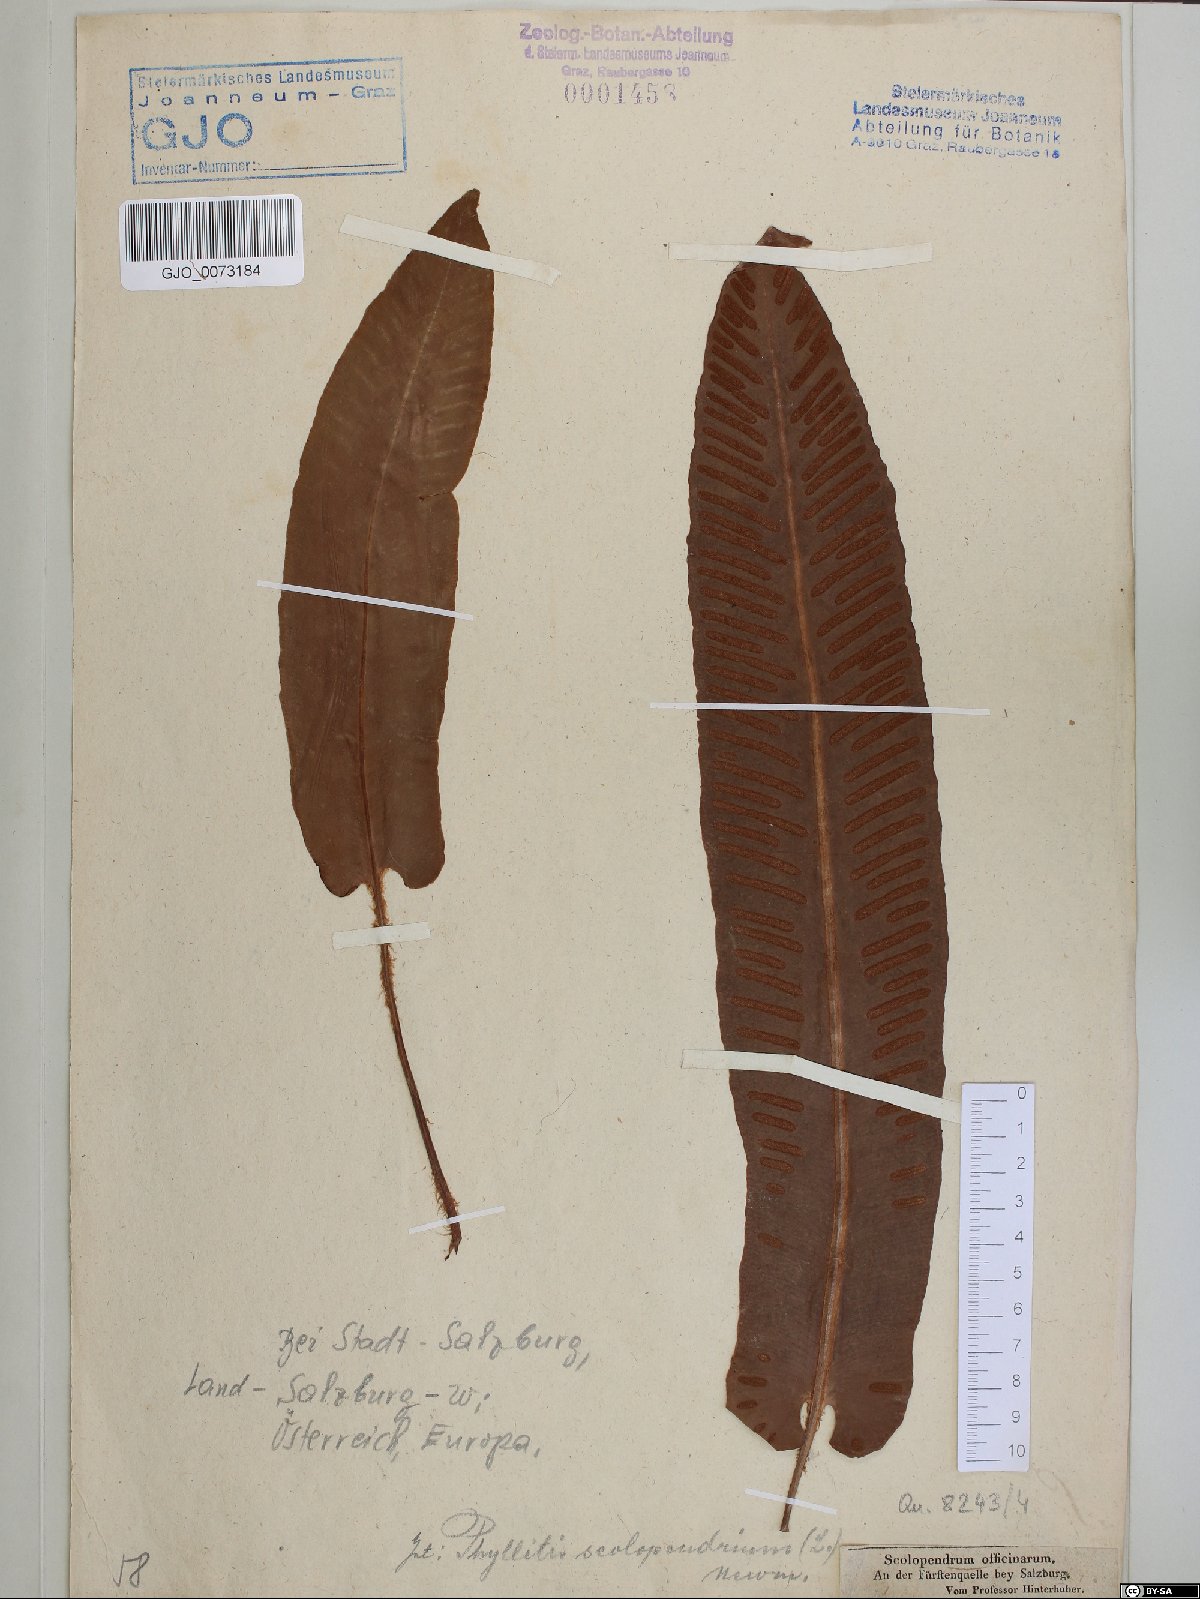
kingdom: Plantae
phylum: Tracheophyta
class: Polypodiopsida
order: Polypodiales
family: Aspleniaceae
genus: Asplenium
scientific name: Asplenium scolopendrium
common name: Hart's-tongue fern
